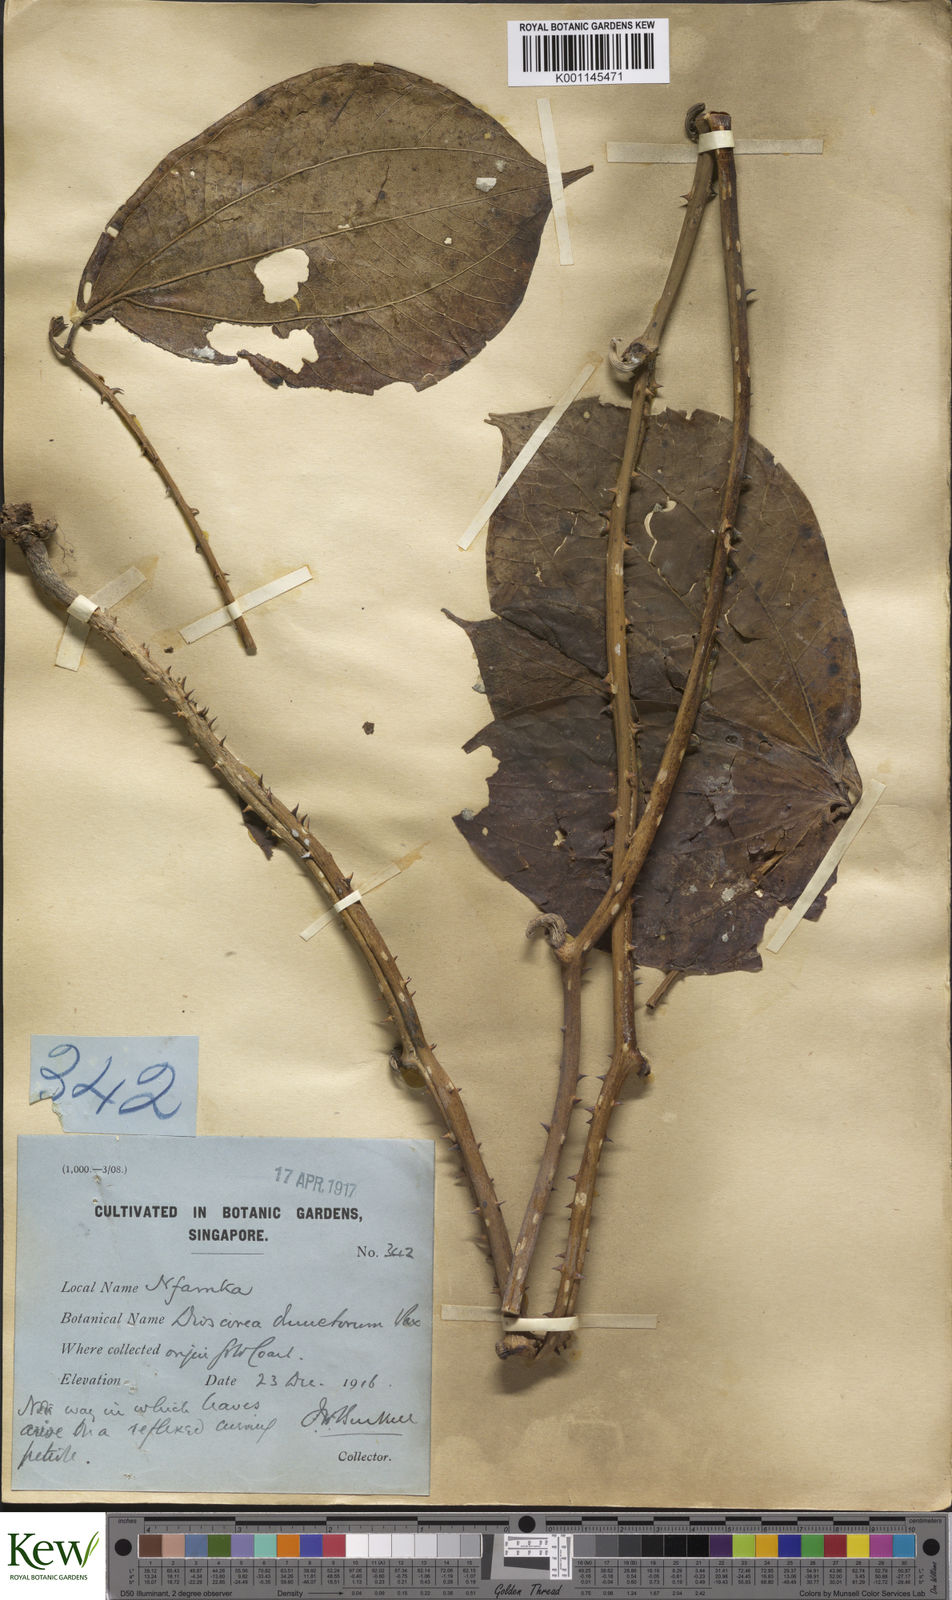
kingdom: Plantae
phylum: Tracheophyta
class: Liliopsida
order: Dioscoreales
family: Dioscoreaceae
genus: Dioscorea
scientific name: Dioscorea dumetorum
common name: African bitter yam
